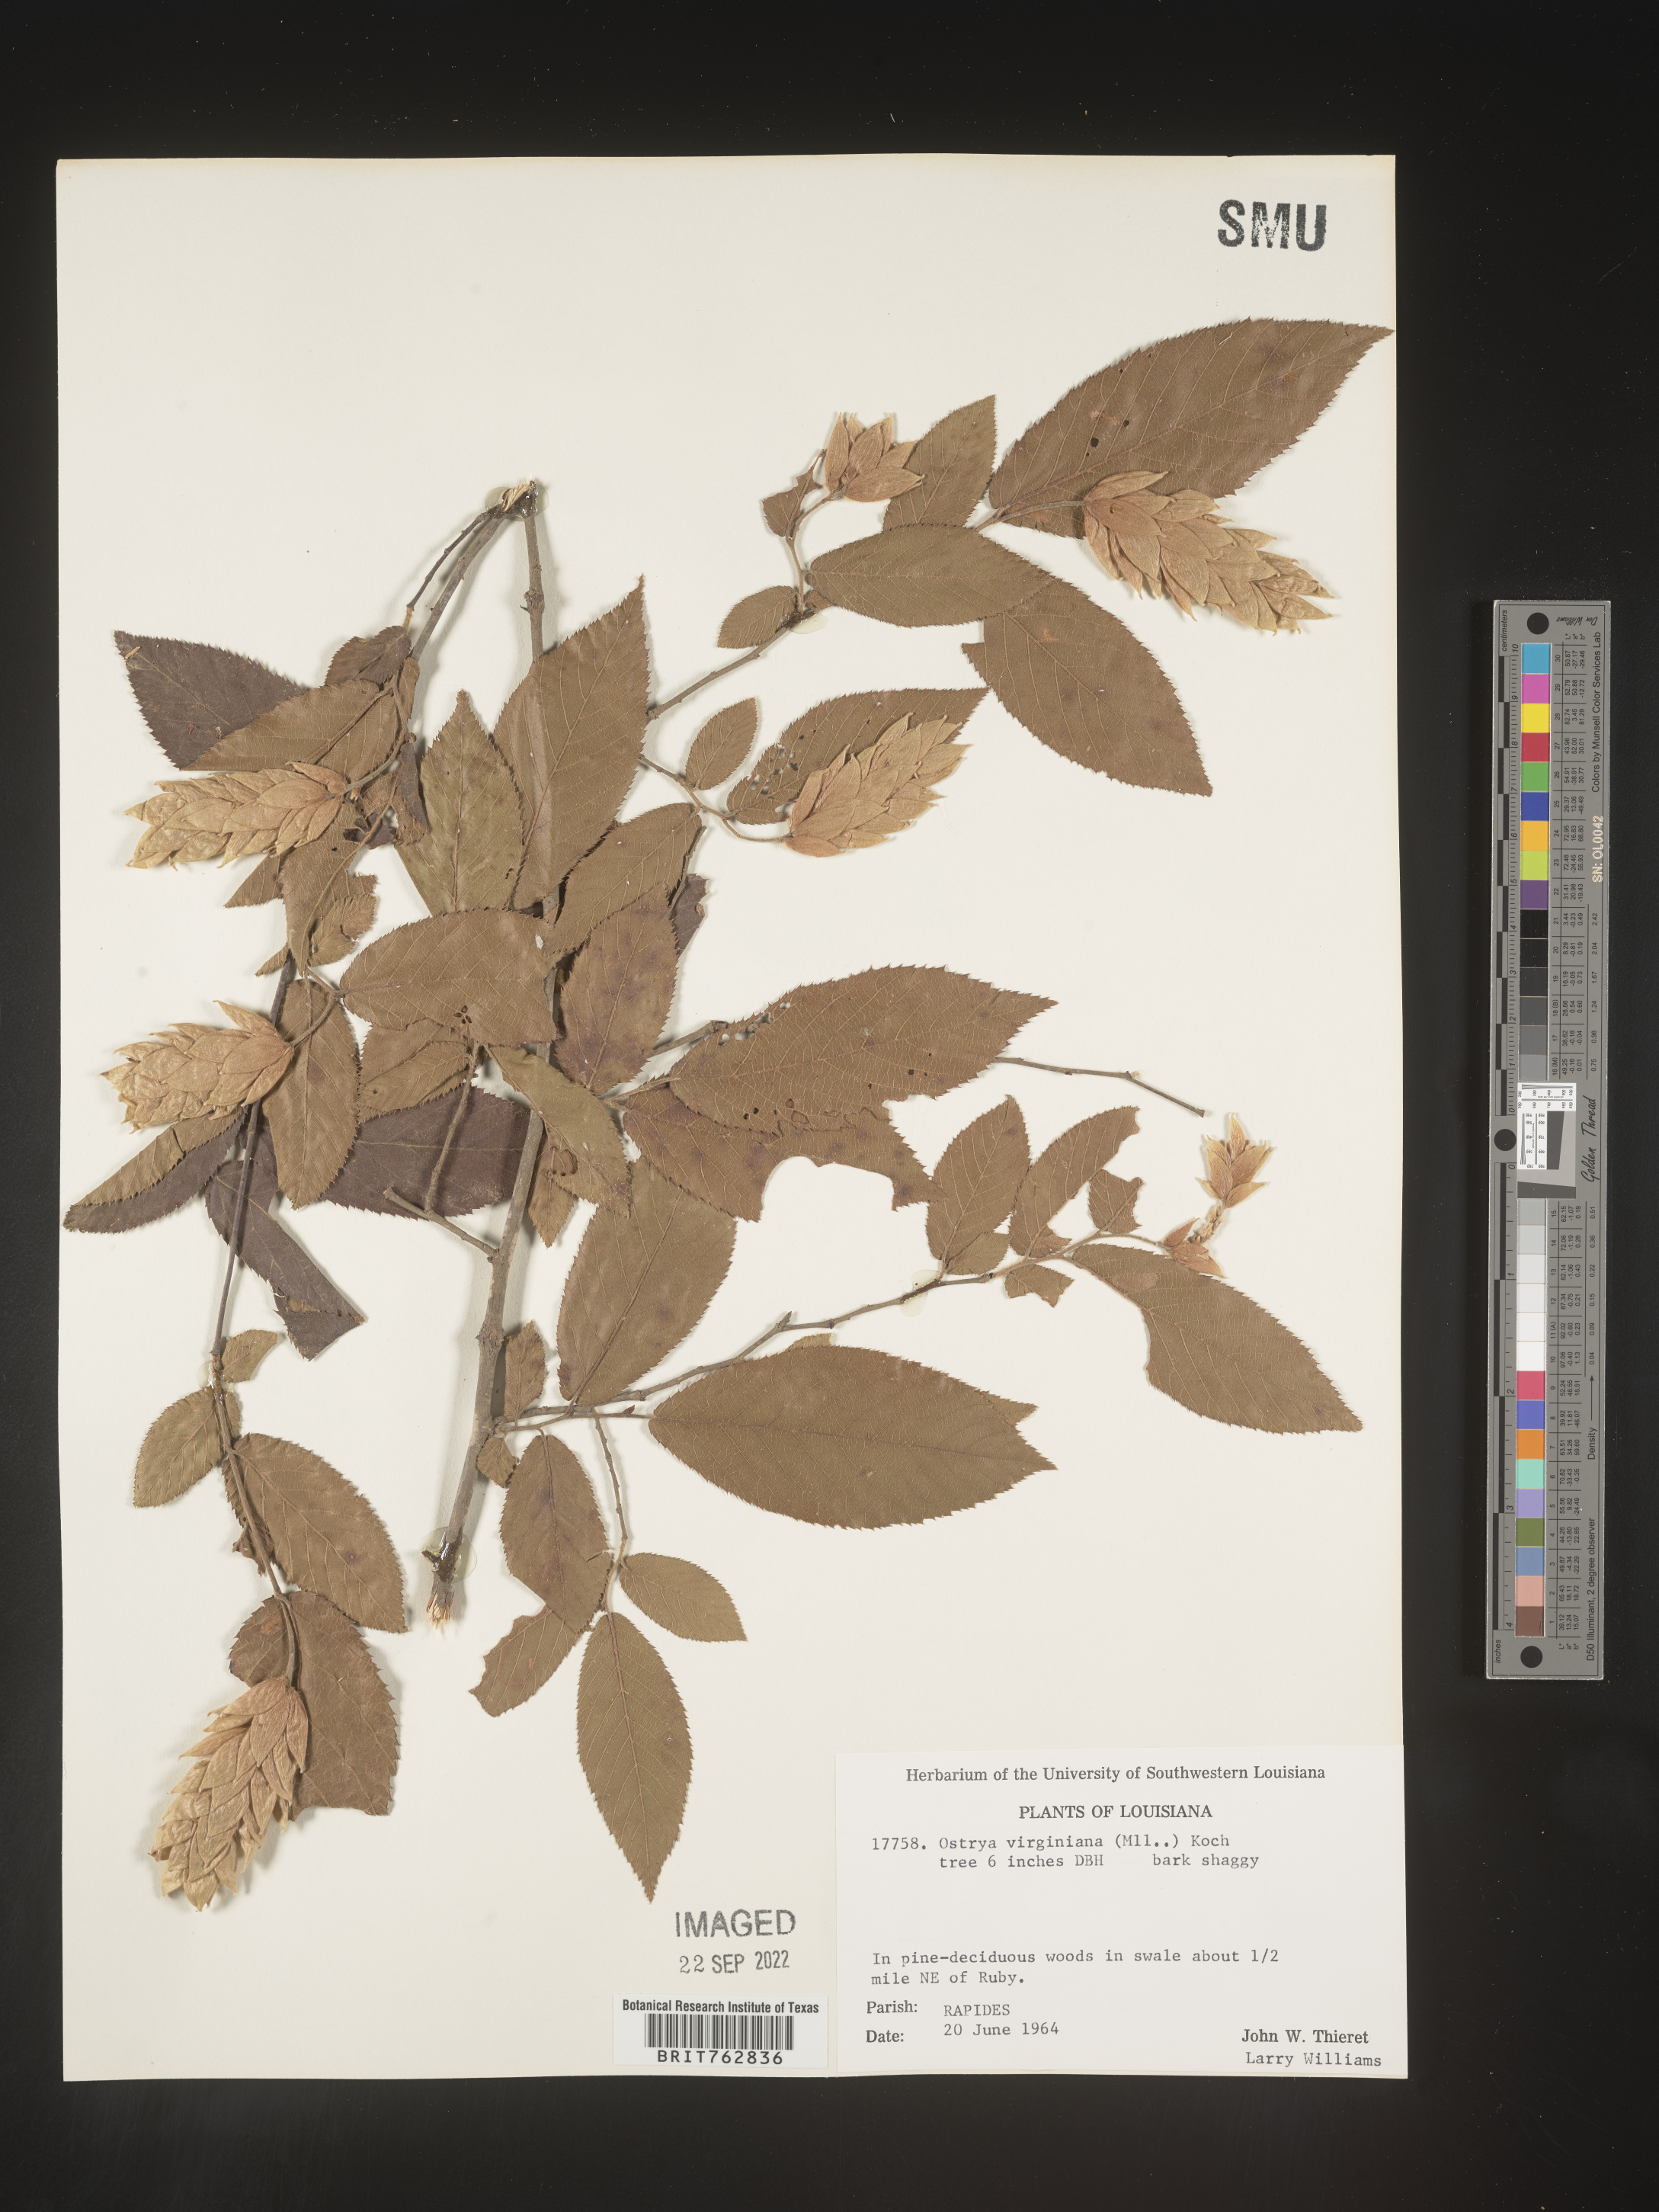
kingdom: Plantae
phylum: Tracheophyta
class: Magnoliopsida
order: Fagales
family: Betulaceae
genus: Ostrya
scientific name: Ostrya virginiana
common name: Ironwood
